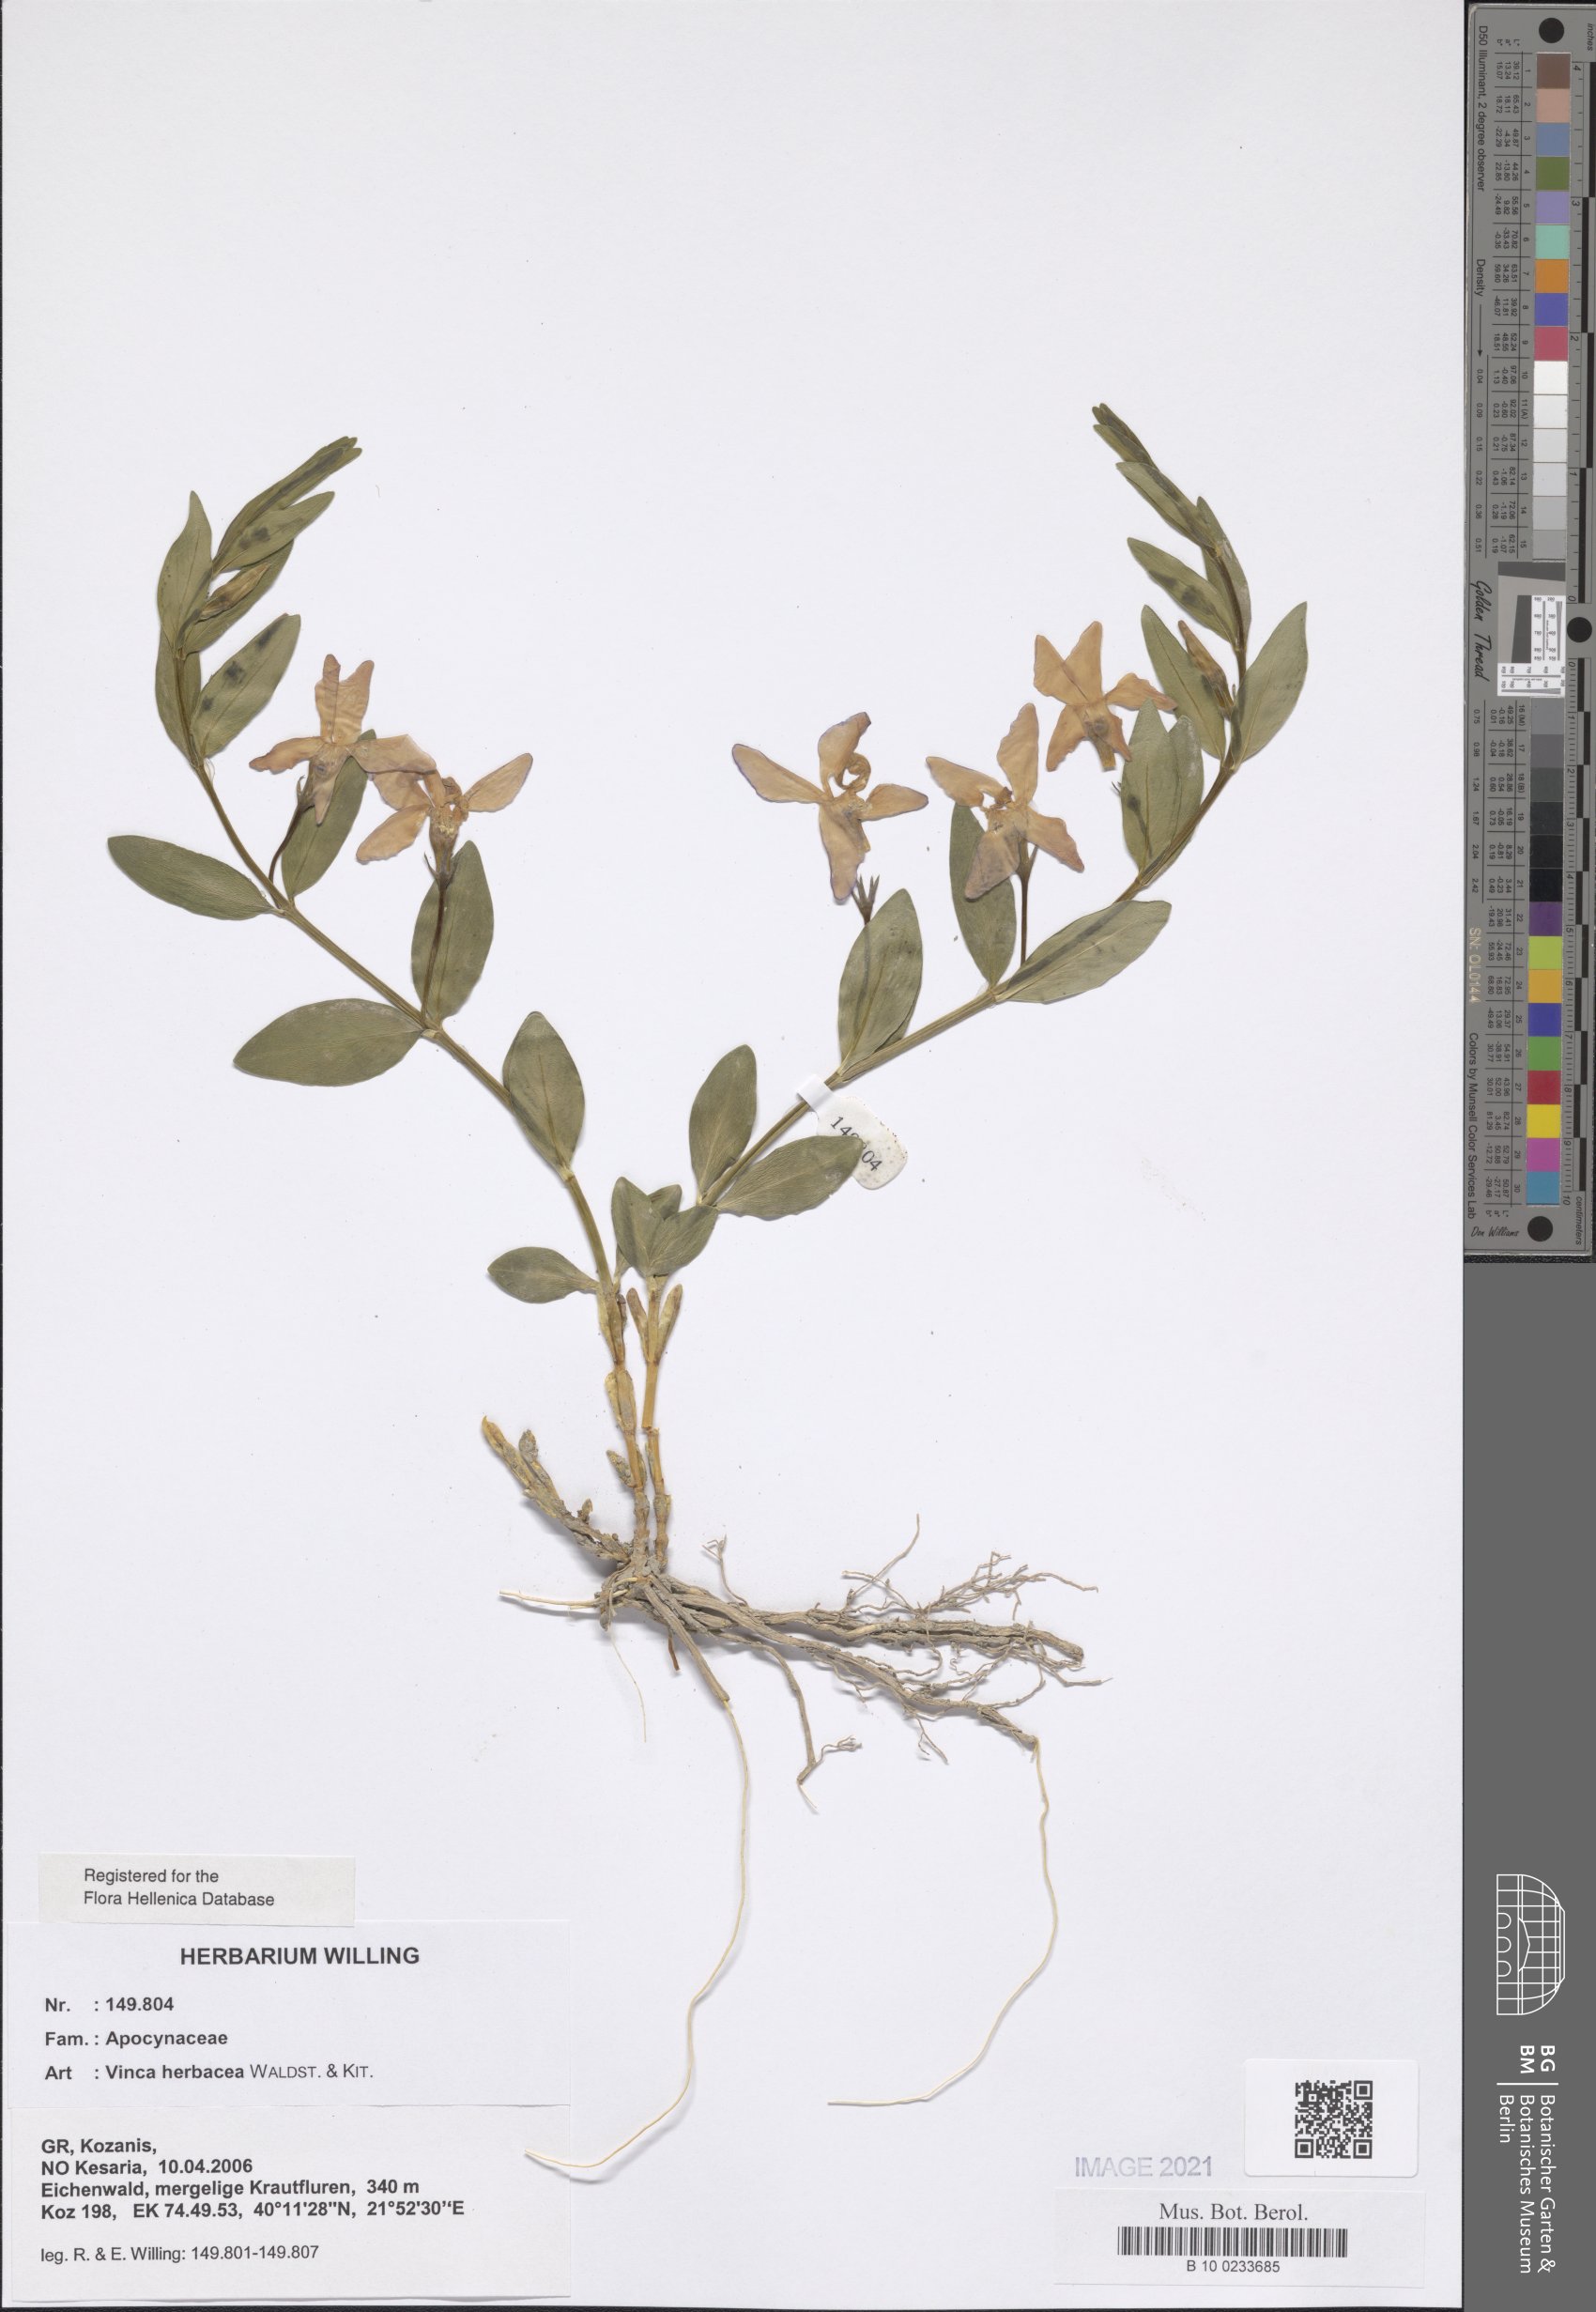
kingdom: Plantae
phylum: Tracheophyta
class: Magnoliopsida
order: Gentianales
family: Apocynaceae
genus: Vinca
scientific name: Vinca herbacea
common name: Herbaceous periwinkle
